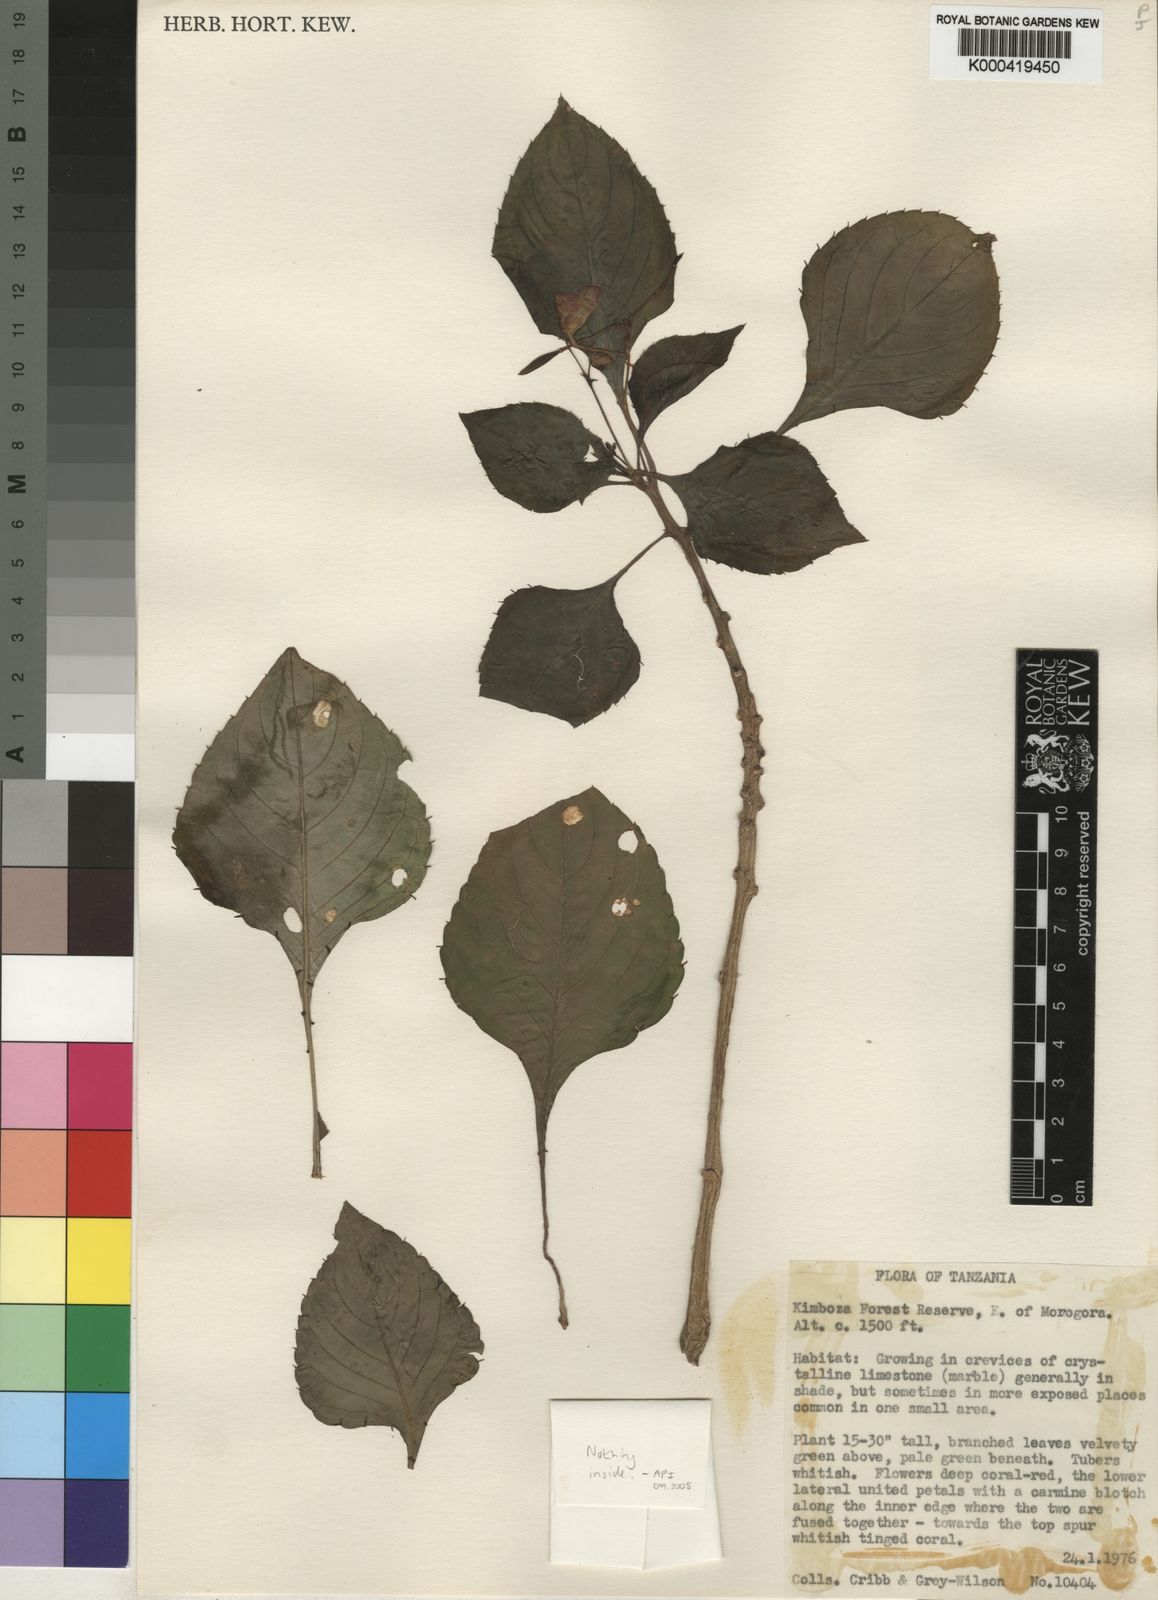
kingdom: Plantae
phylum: Tracheophyta
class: Magnoliopsida
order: Ericales
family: Balsaminaceae
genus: Impatiens
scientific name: Impatiens cinnabarina
